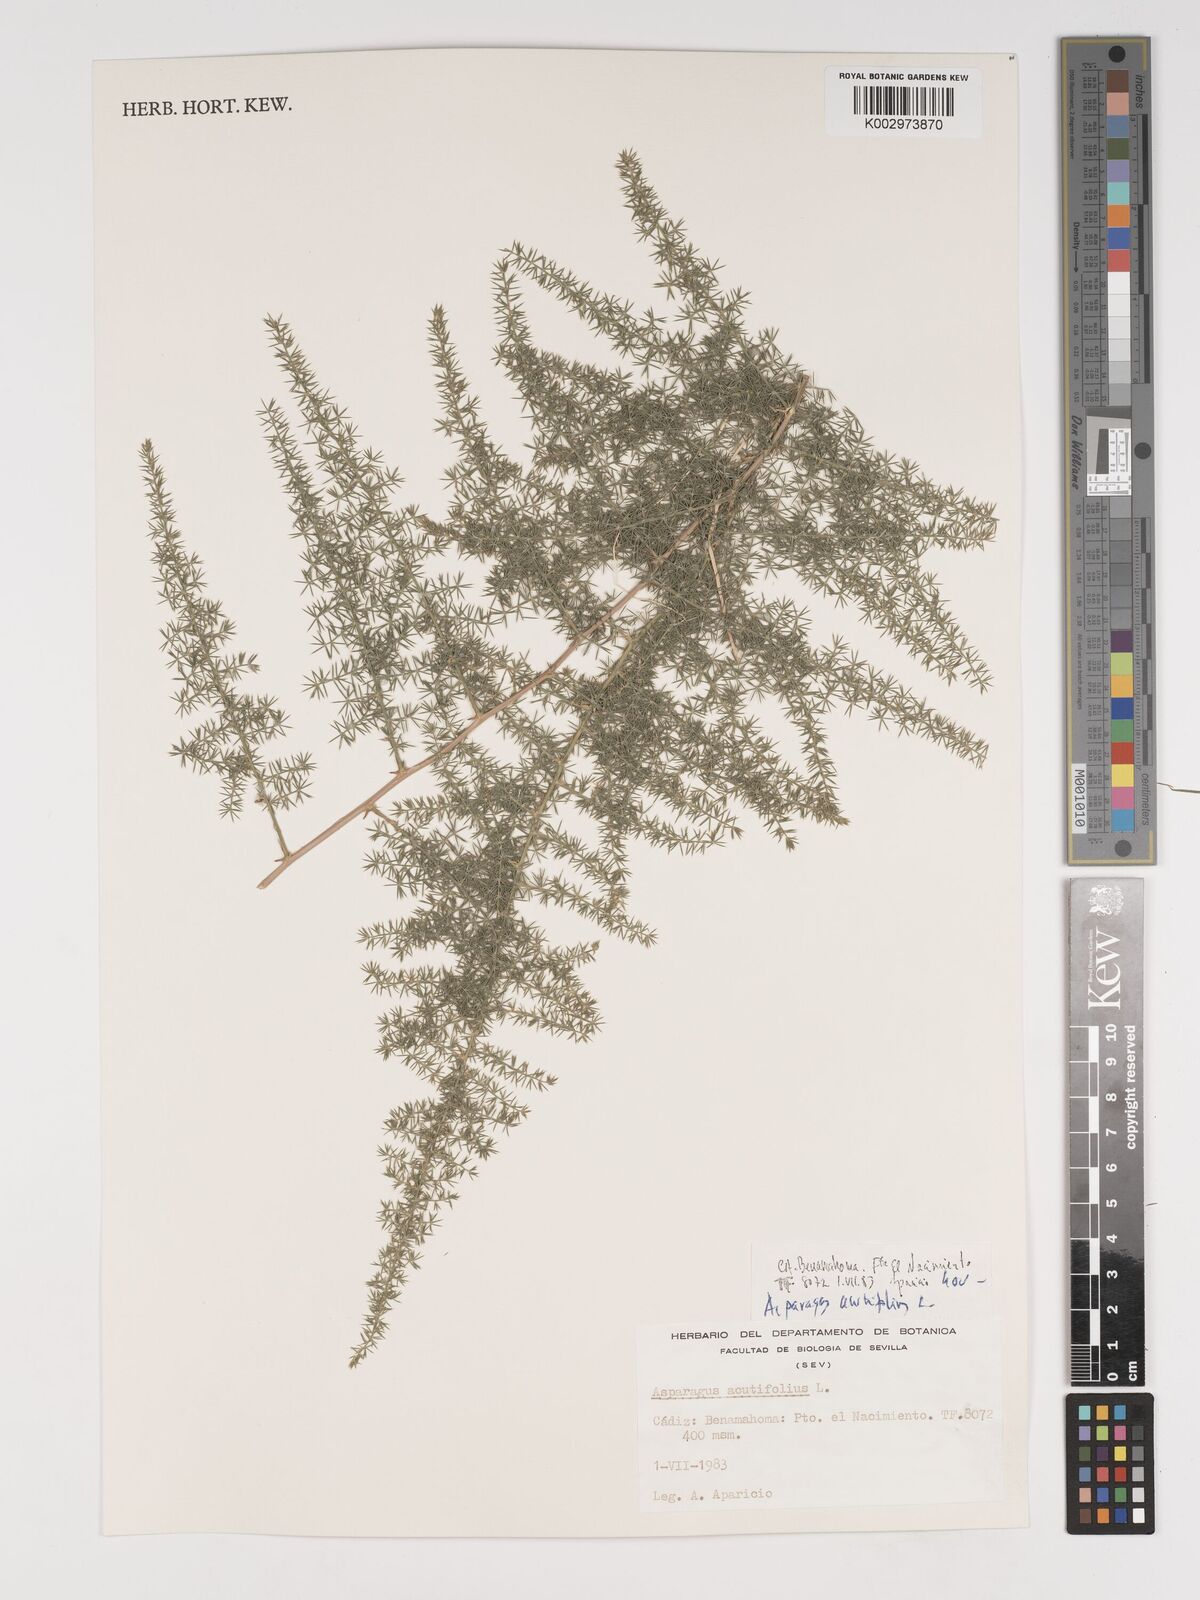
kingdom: Plantae
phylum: Tracheophyta
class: Liliopsida
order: Asparagales
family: Asparagaceae
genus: Asparagus
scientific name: Asparagus acutifolius
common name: Wild asparagus
